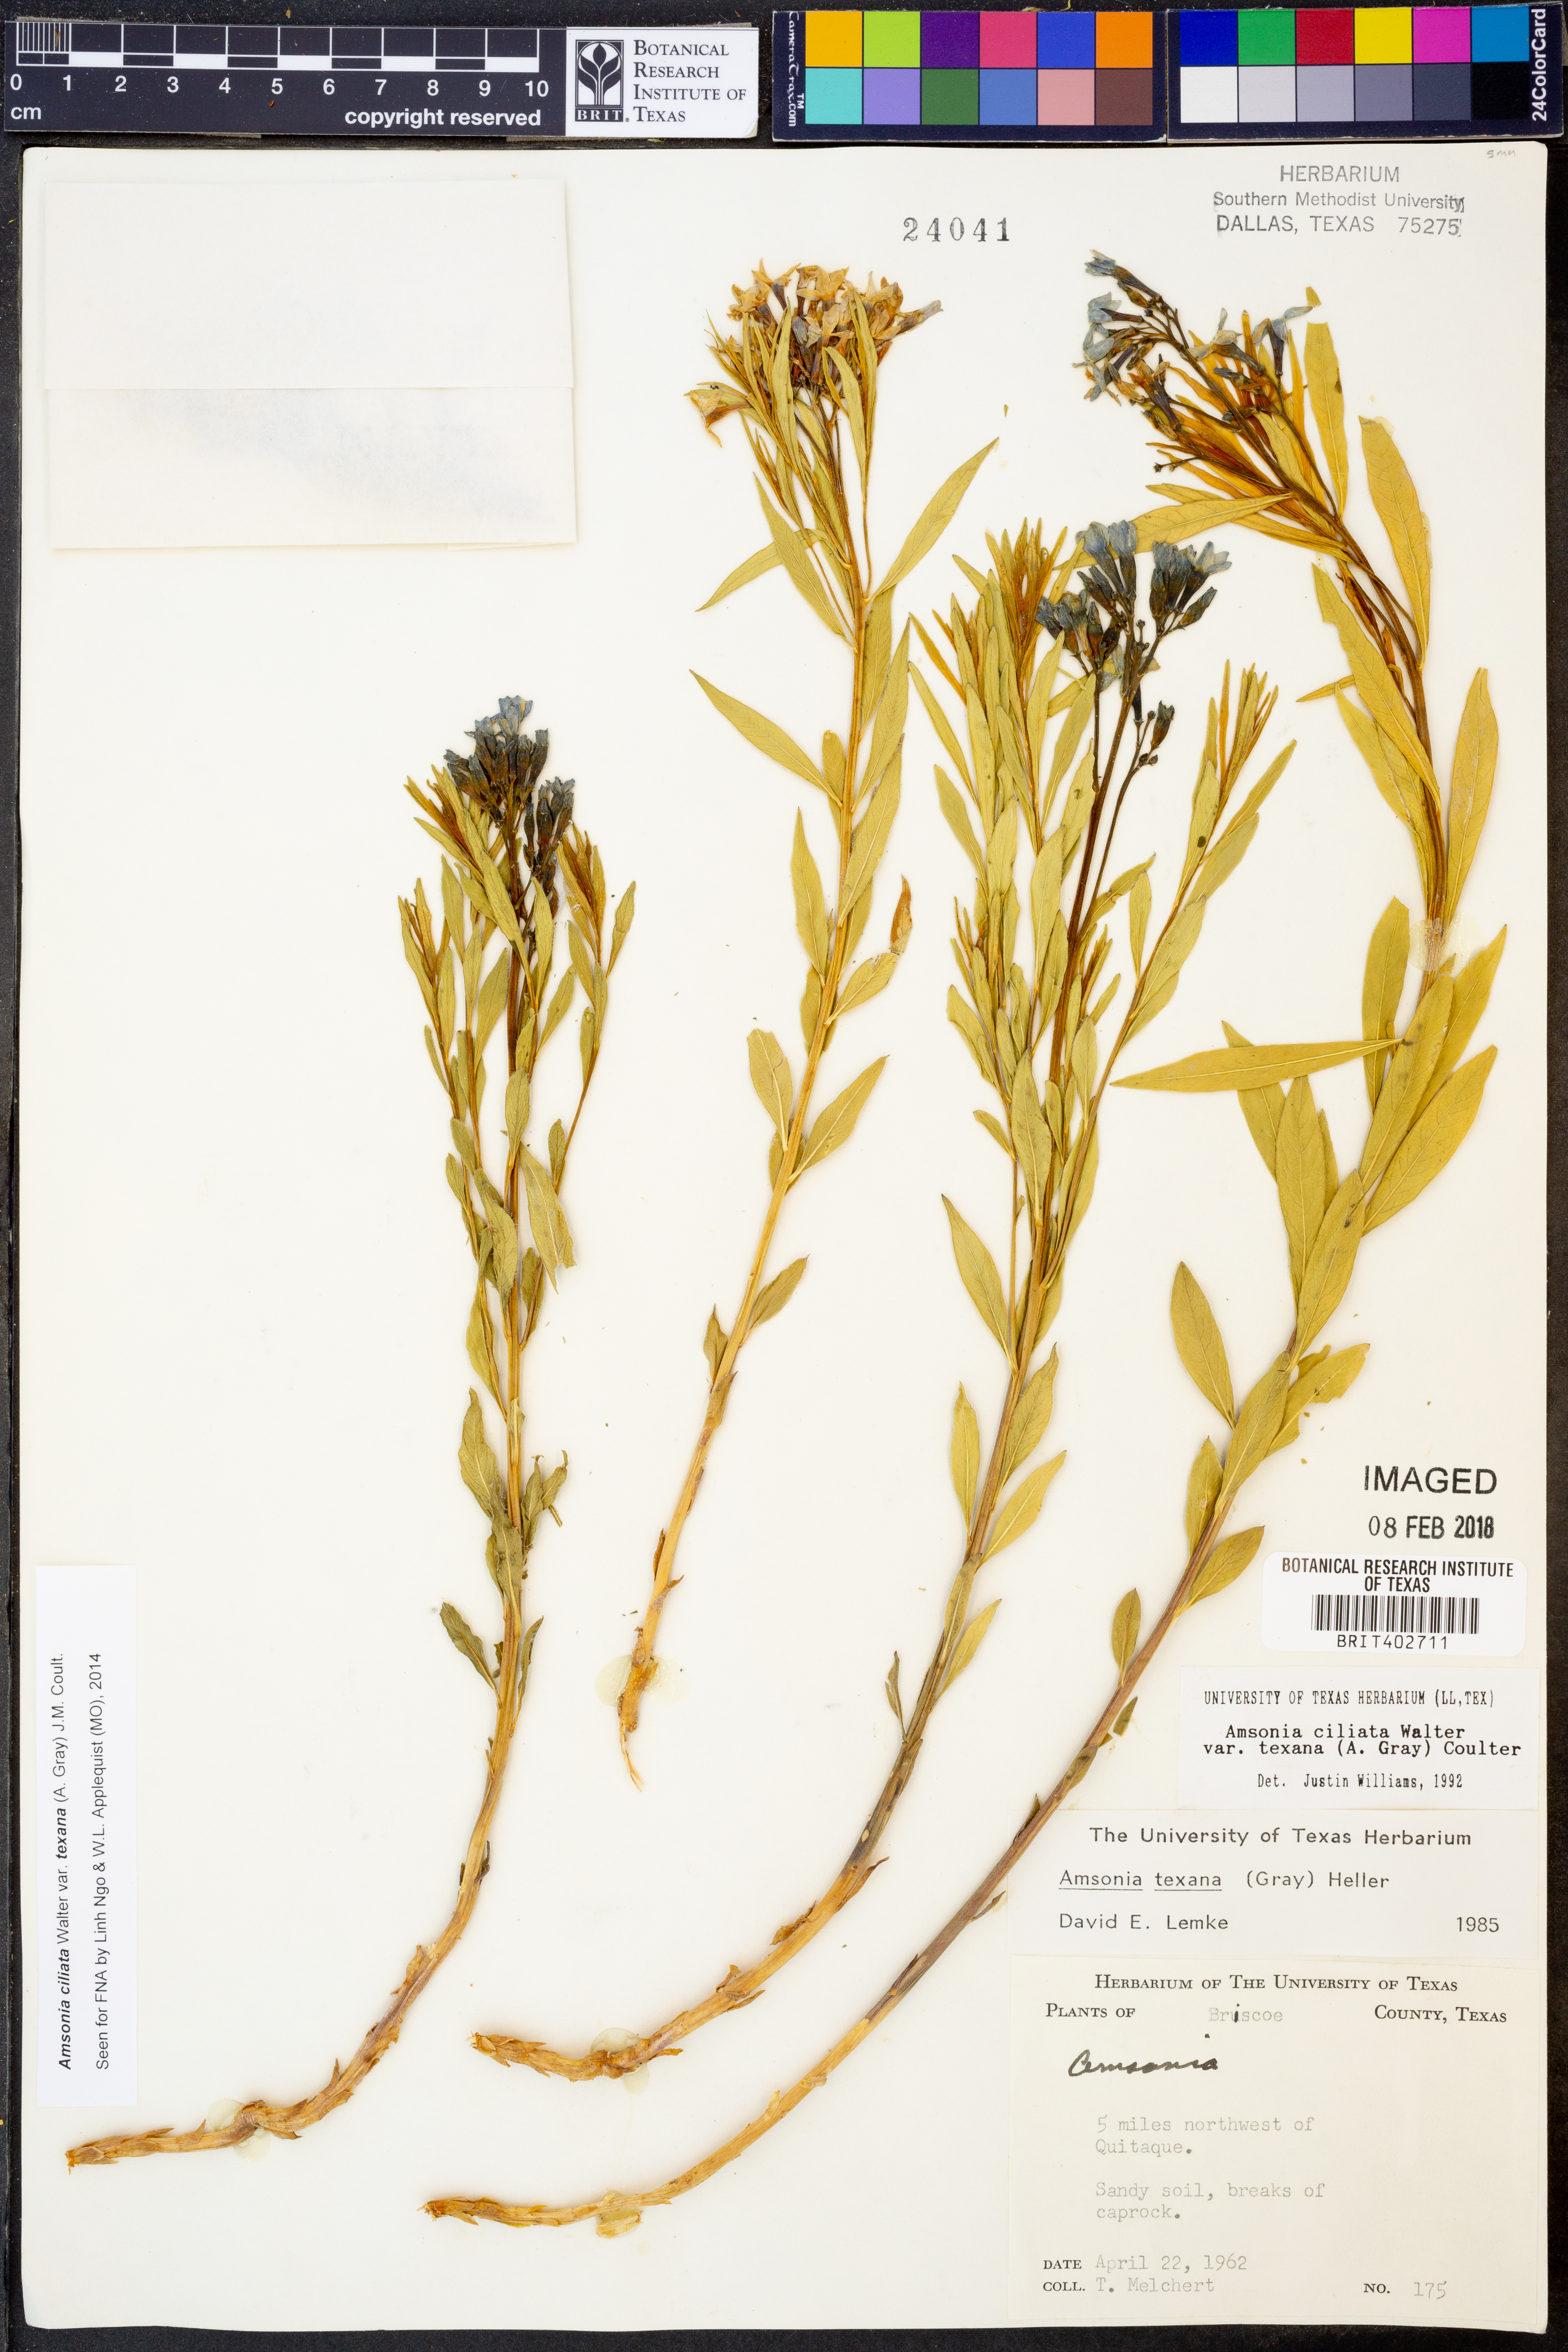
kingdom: Plantae
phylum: Tracheophyta
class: Magnoliopsida
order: Gentianales
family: Apocynaceae
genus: Amsonia
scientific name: Amsonia ciliata
